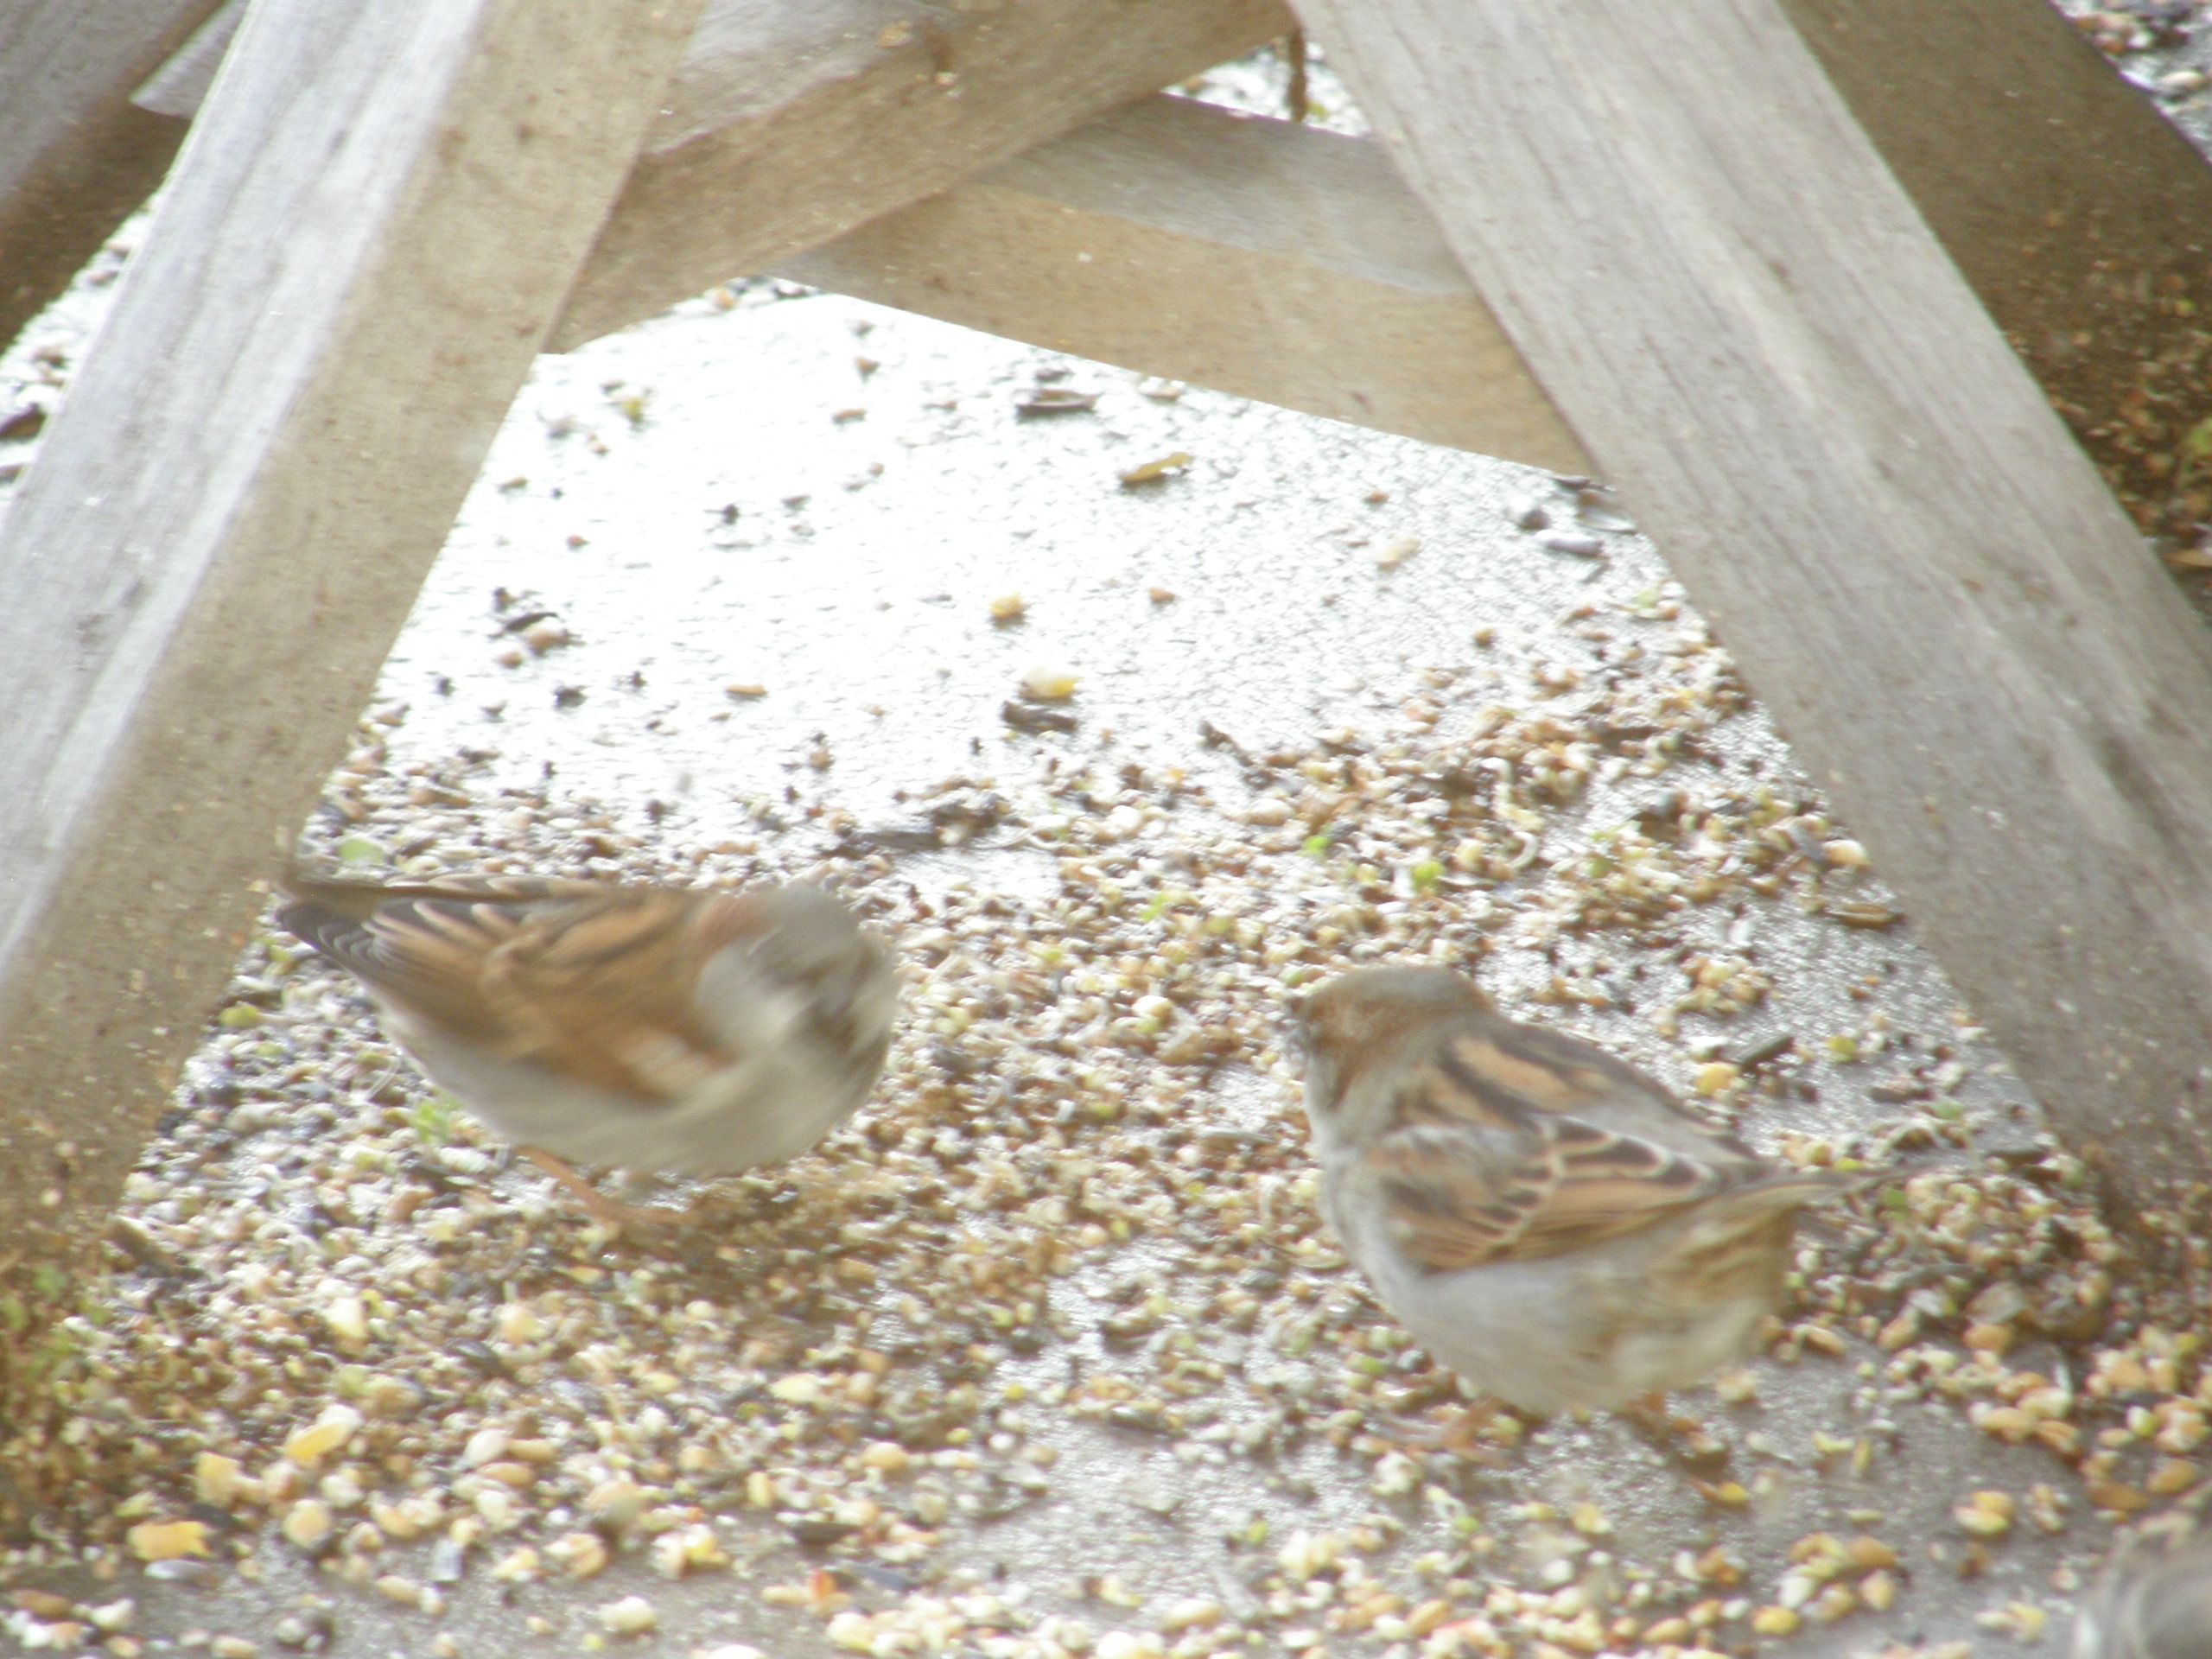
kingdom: Animalia
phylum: Chordata
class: Aves
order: Passeriformes
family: Passeridae
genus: Passer
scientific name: Passer domesticus
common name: Gråspurv
